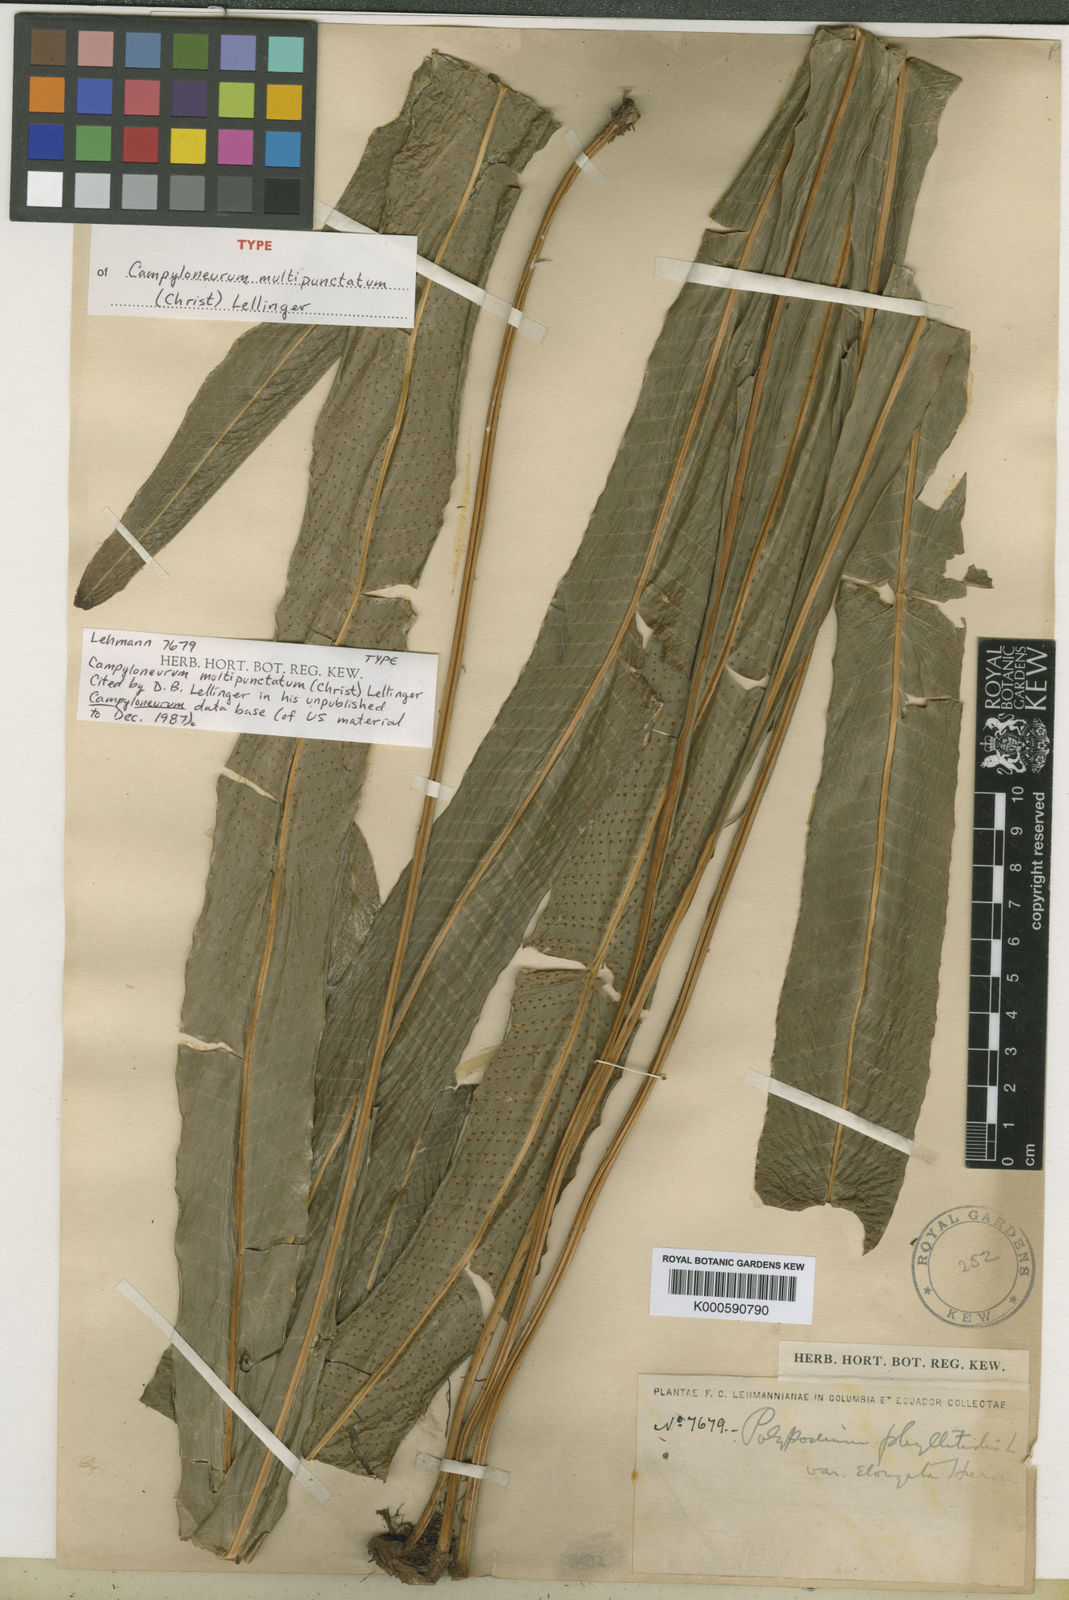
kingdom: Plantae
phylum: Tracheophyta
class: Polypodiopsida
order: Polypodiales
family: Polypodiaceae
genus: Campyloneurum
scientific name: Campyloneurum xalapense
